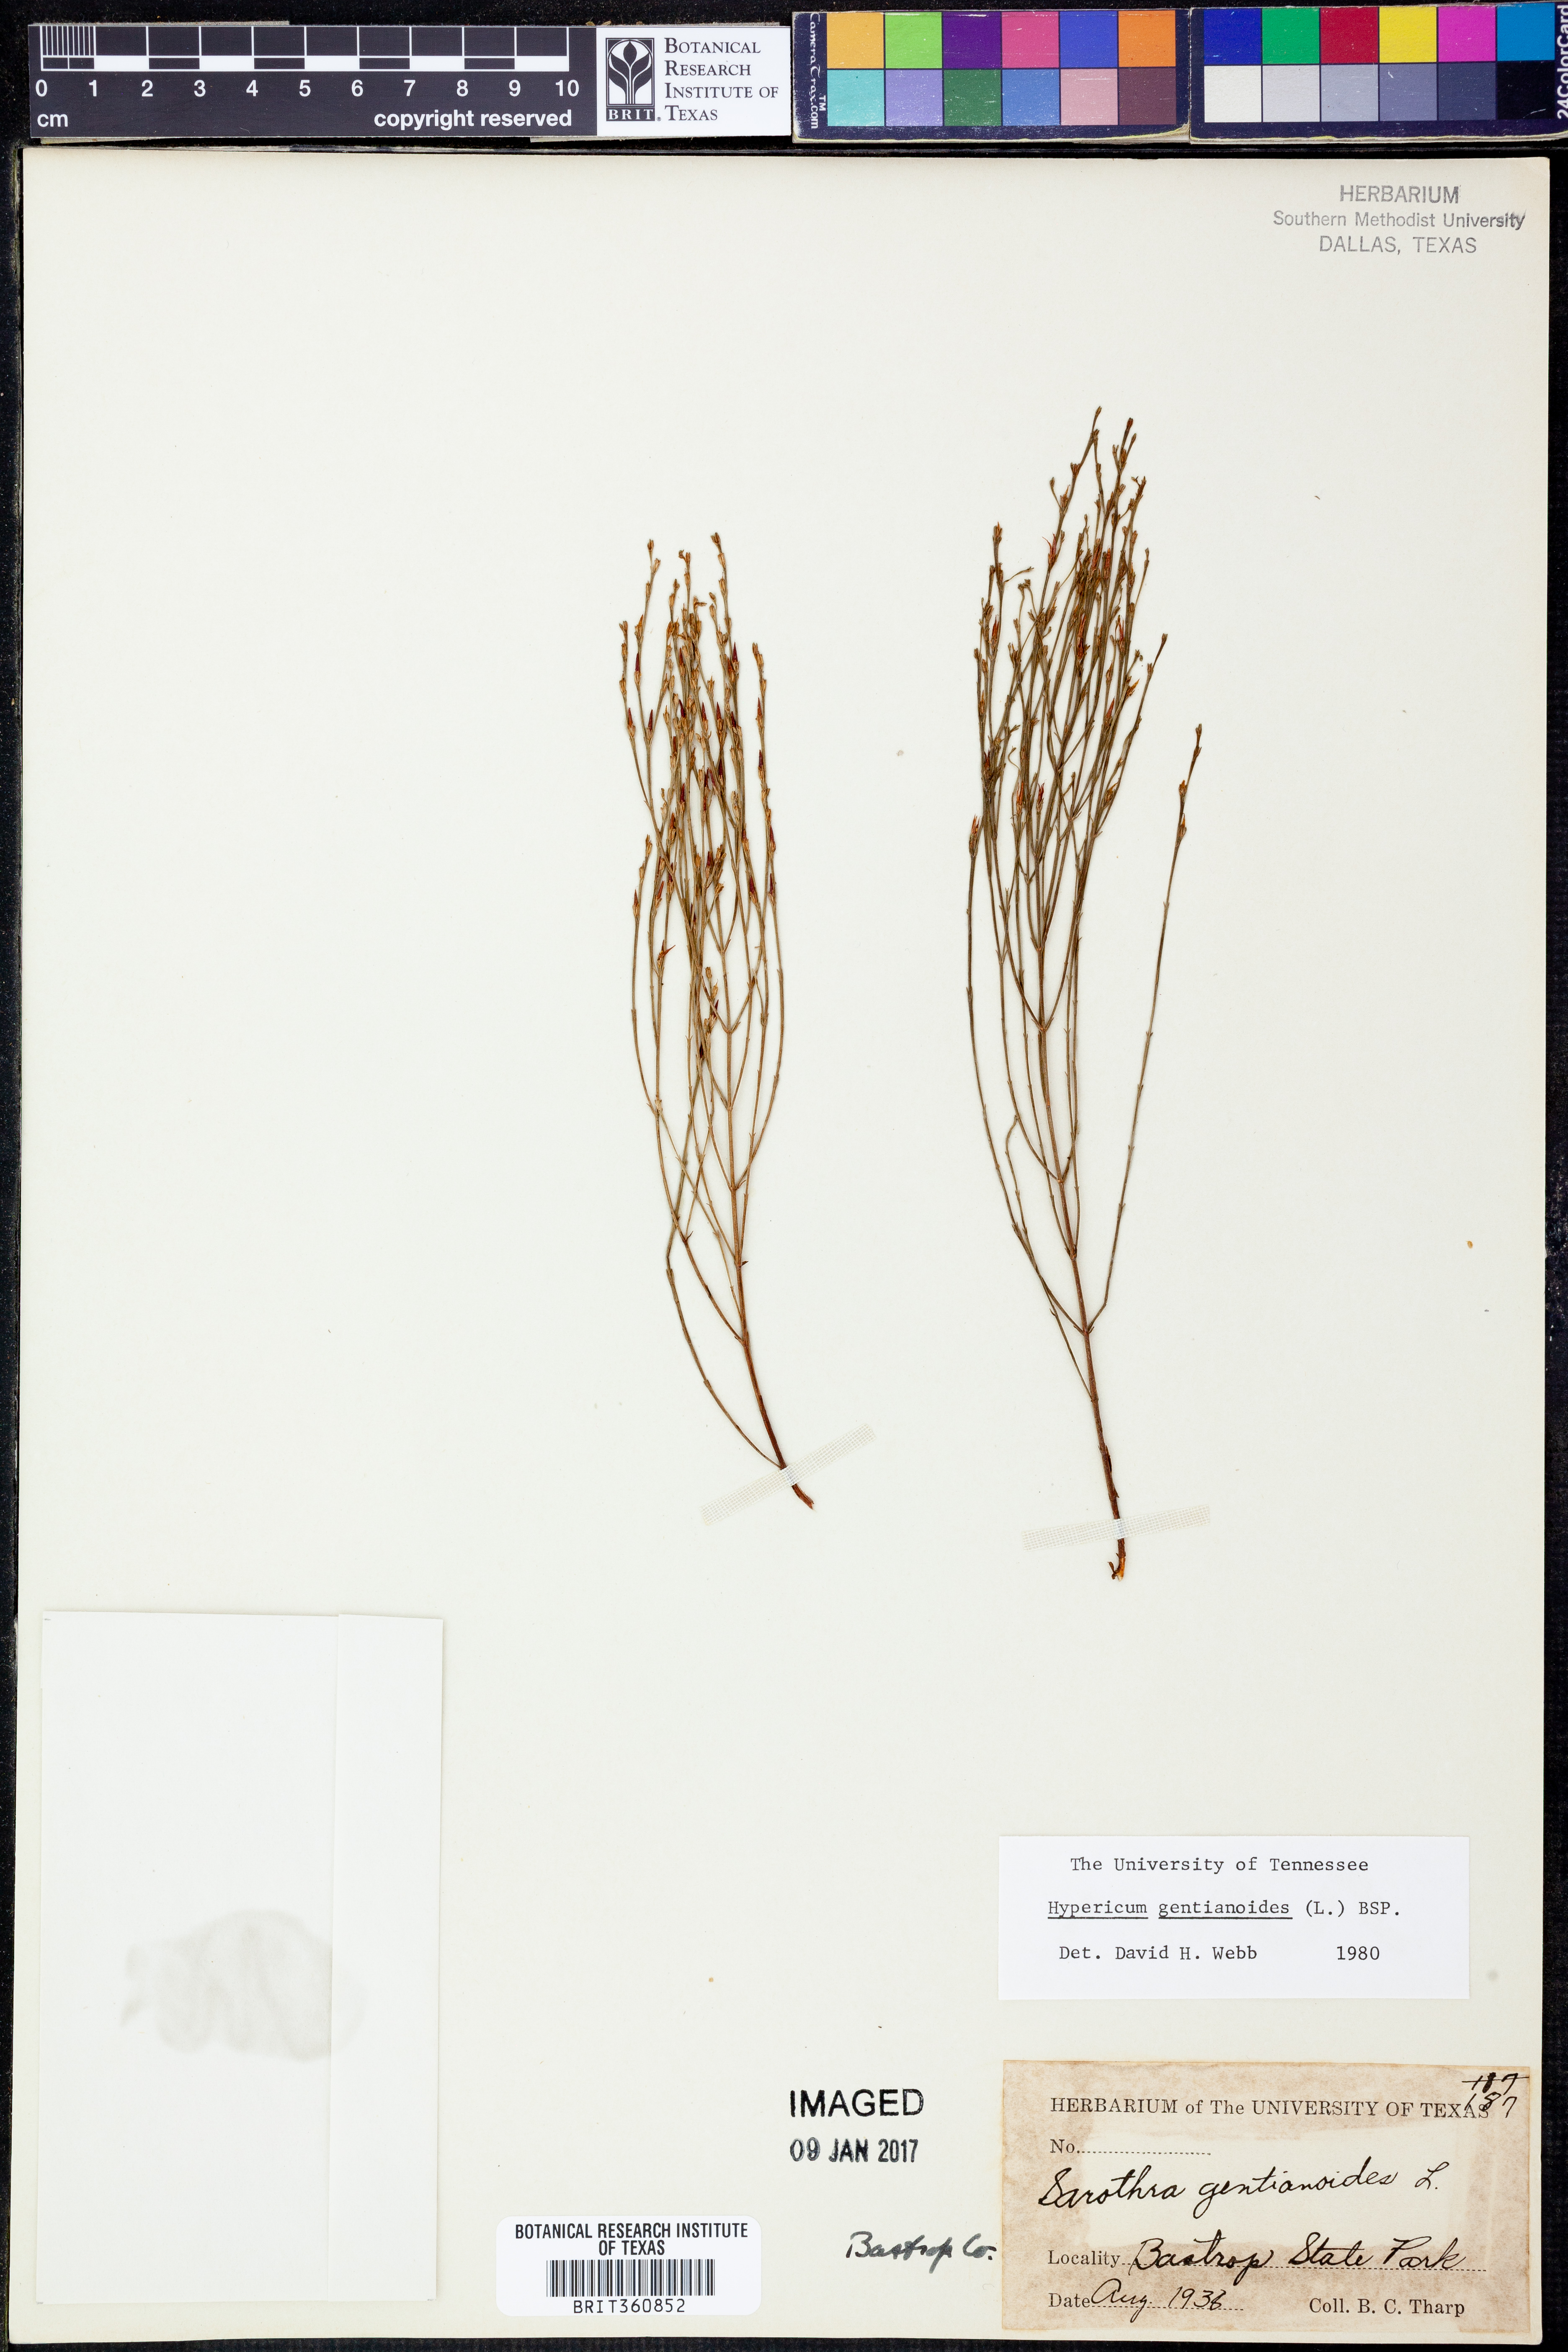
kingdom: Plantae
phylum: Tracheophyta
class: Magnoliopsida
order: Malpighiales
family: Hypericaceae
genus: Hypericum
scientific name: Hypericum gentianoides
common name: Gentian-leaved st. john's-wort
